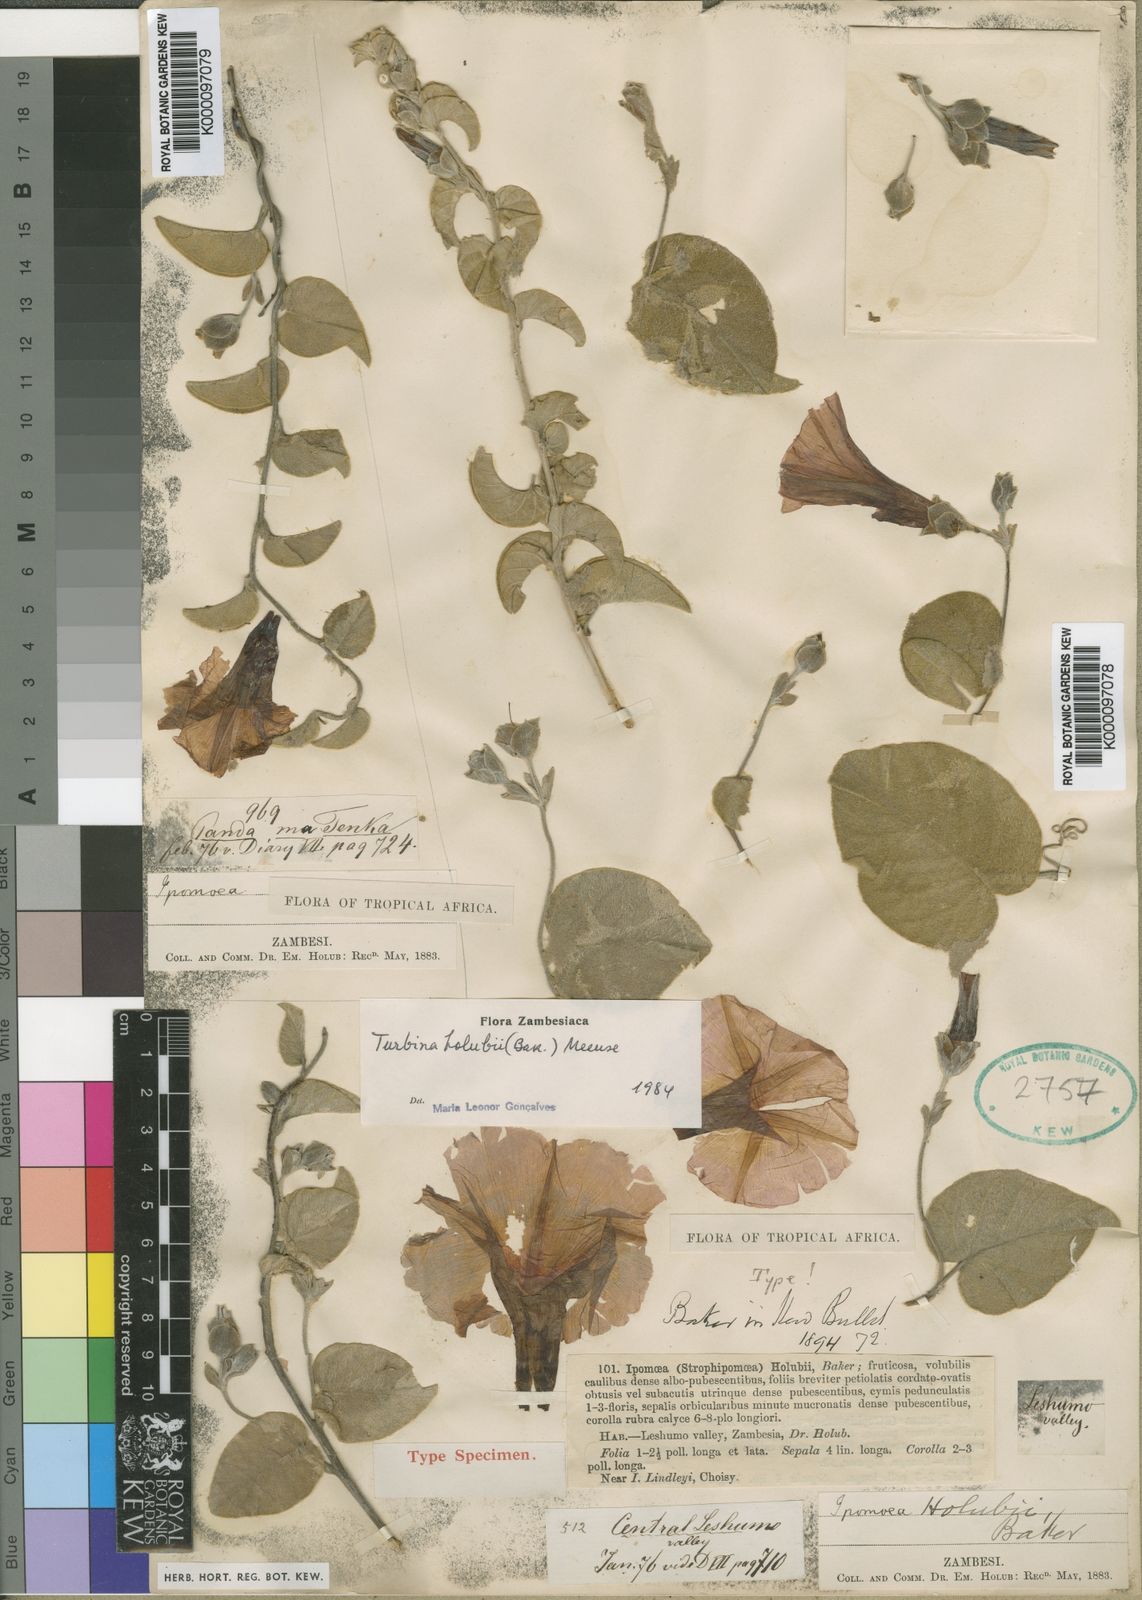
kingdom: Plantae
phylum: Tracheophyta
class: Magnoliopsida
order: Solanales
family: Convolvulaceae
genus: Ipomoea
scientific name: Ipomoea holubii
